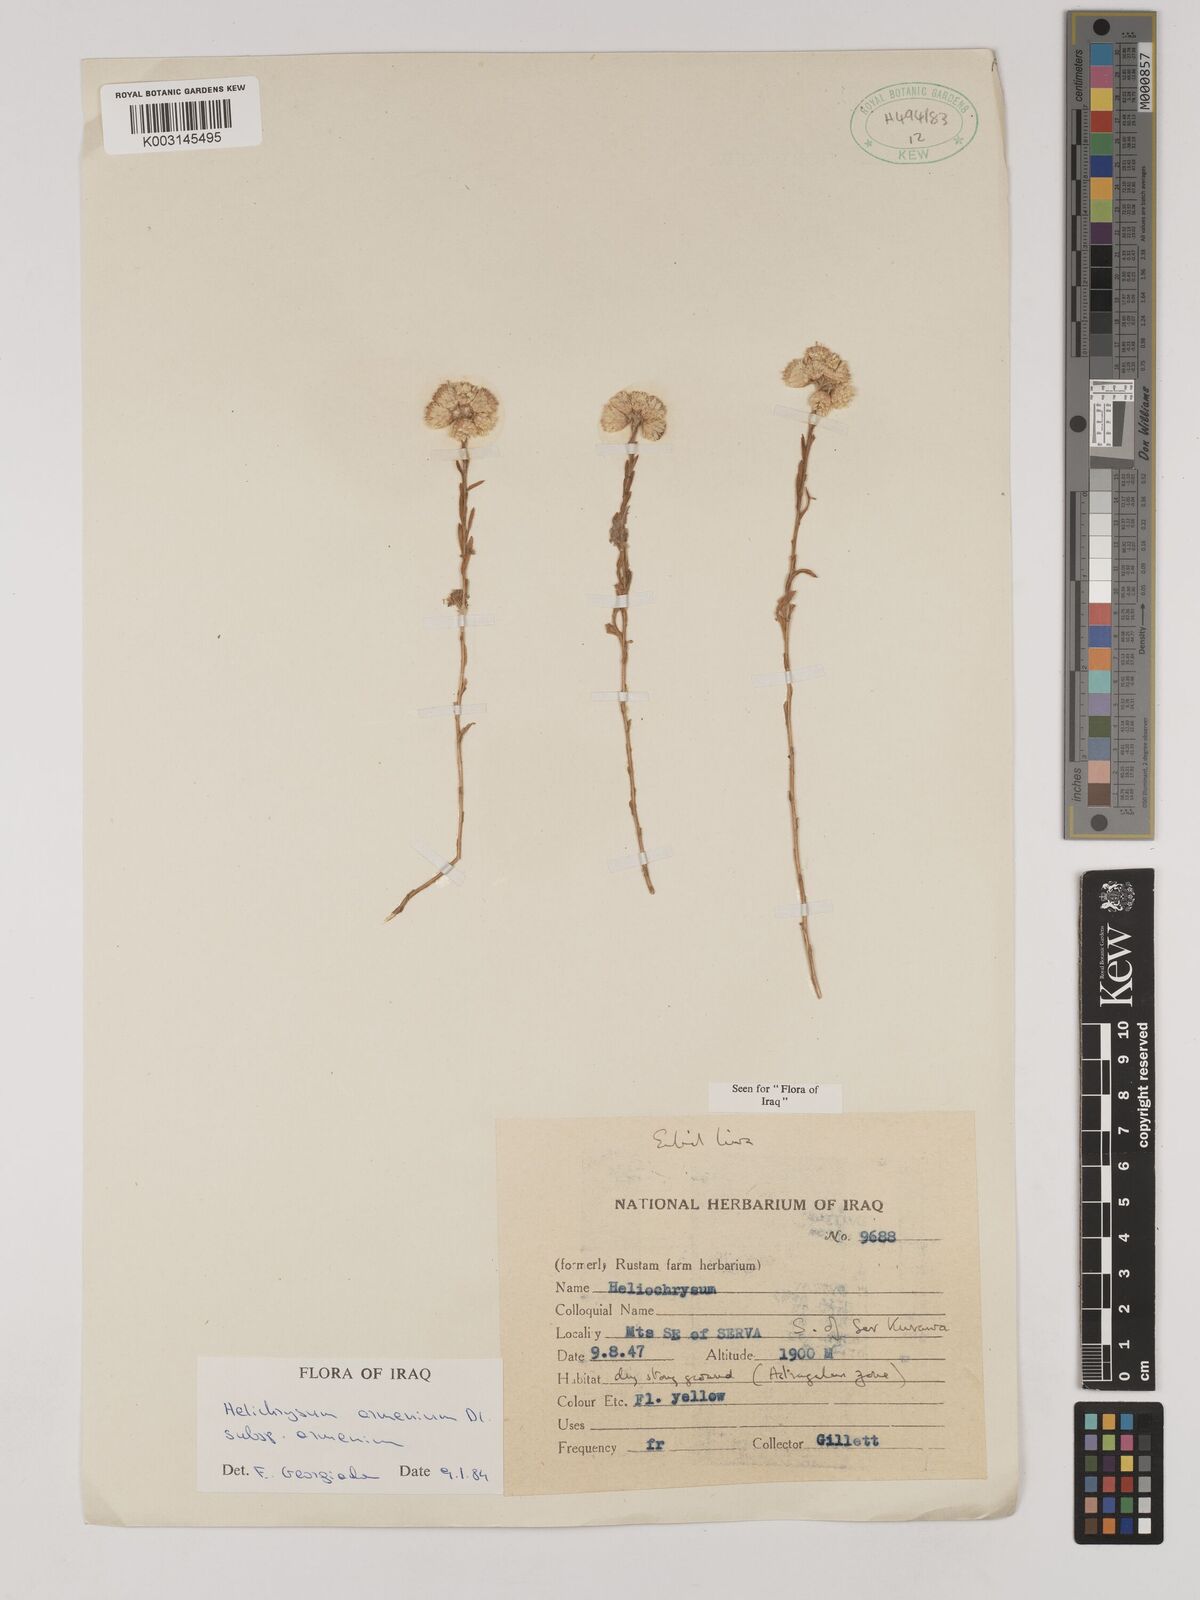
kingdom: Plantae
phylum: Tracheophyta
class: Magnoliopsida
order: Asterales
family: Asteraceae
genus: Helichrysum
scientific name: Helichrysum armenium
